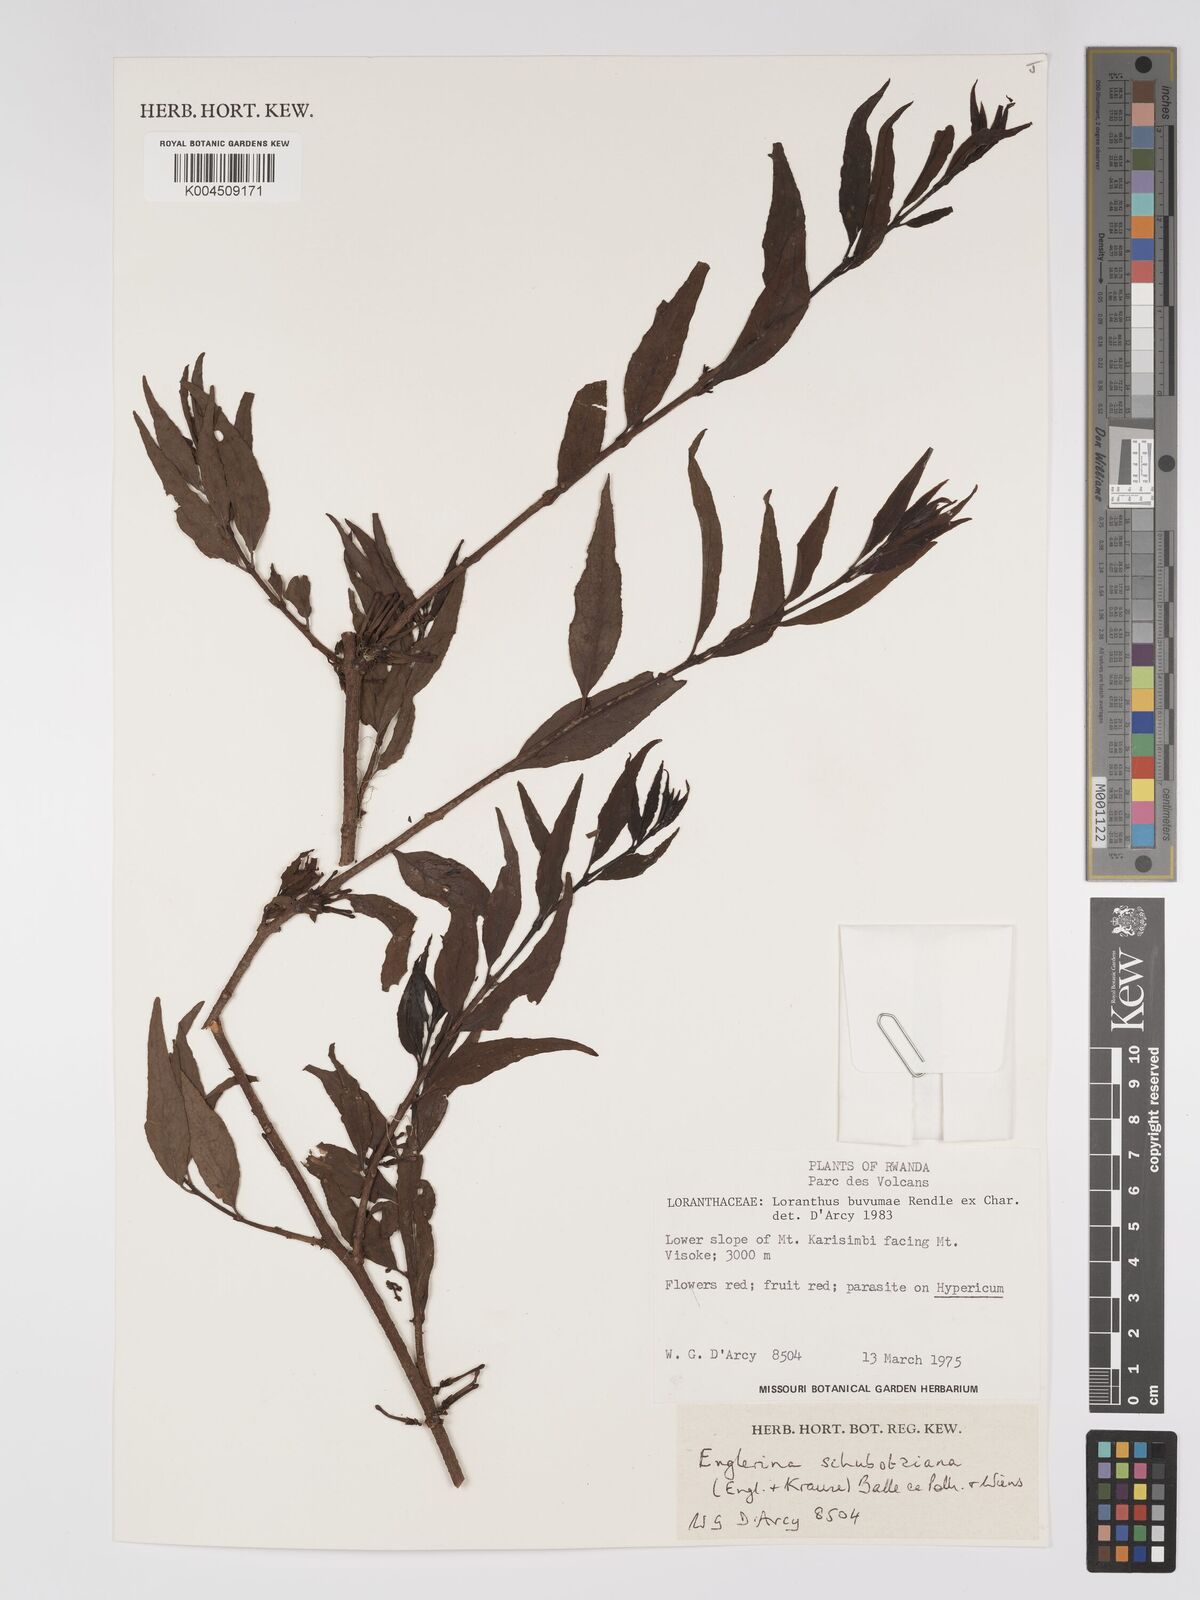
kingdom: Plantae
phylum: Tracheophyta
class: Magnoliopsida
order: Santalales
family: Loranthaceae
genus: Englerina
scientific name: Englerina schubotziana
